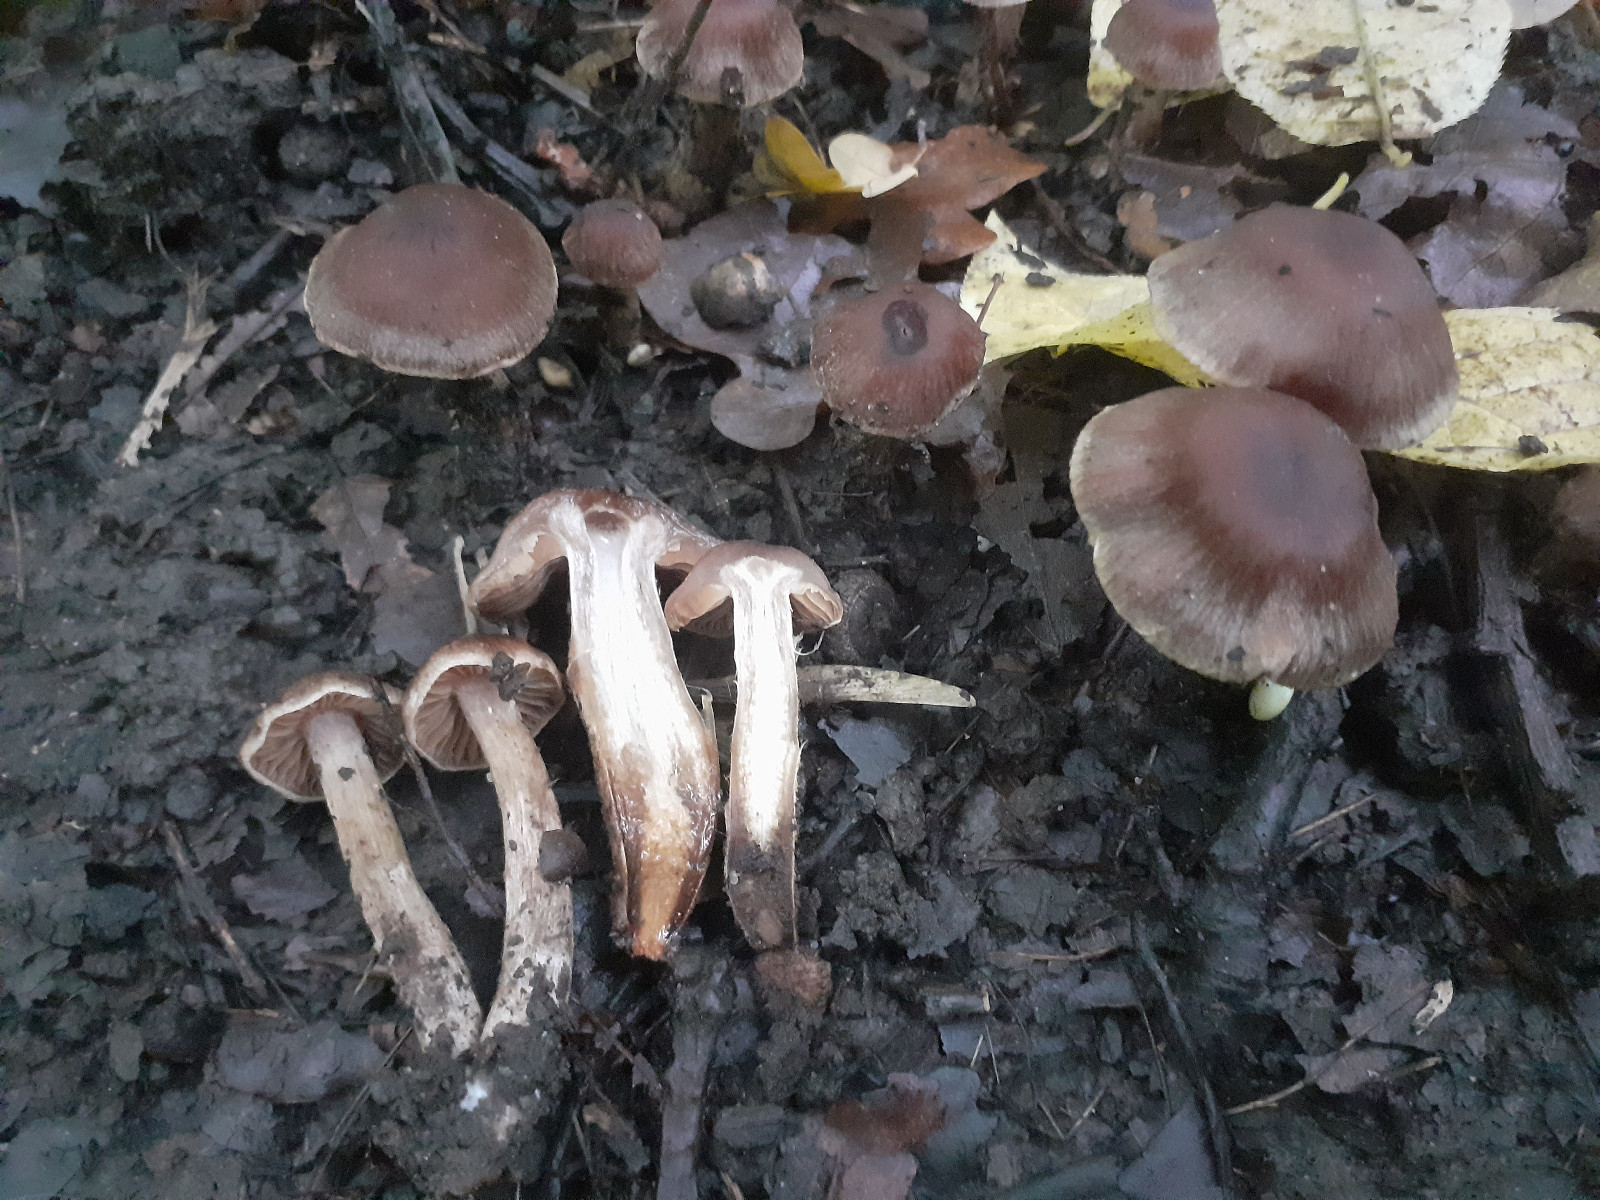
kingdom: Fungi
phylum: Basidiomycota
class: Agaricomycetes
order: Agaricales
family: Cortinariaceae
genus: Cortinarius
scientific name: Cortinarius fuscogracilescens
